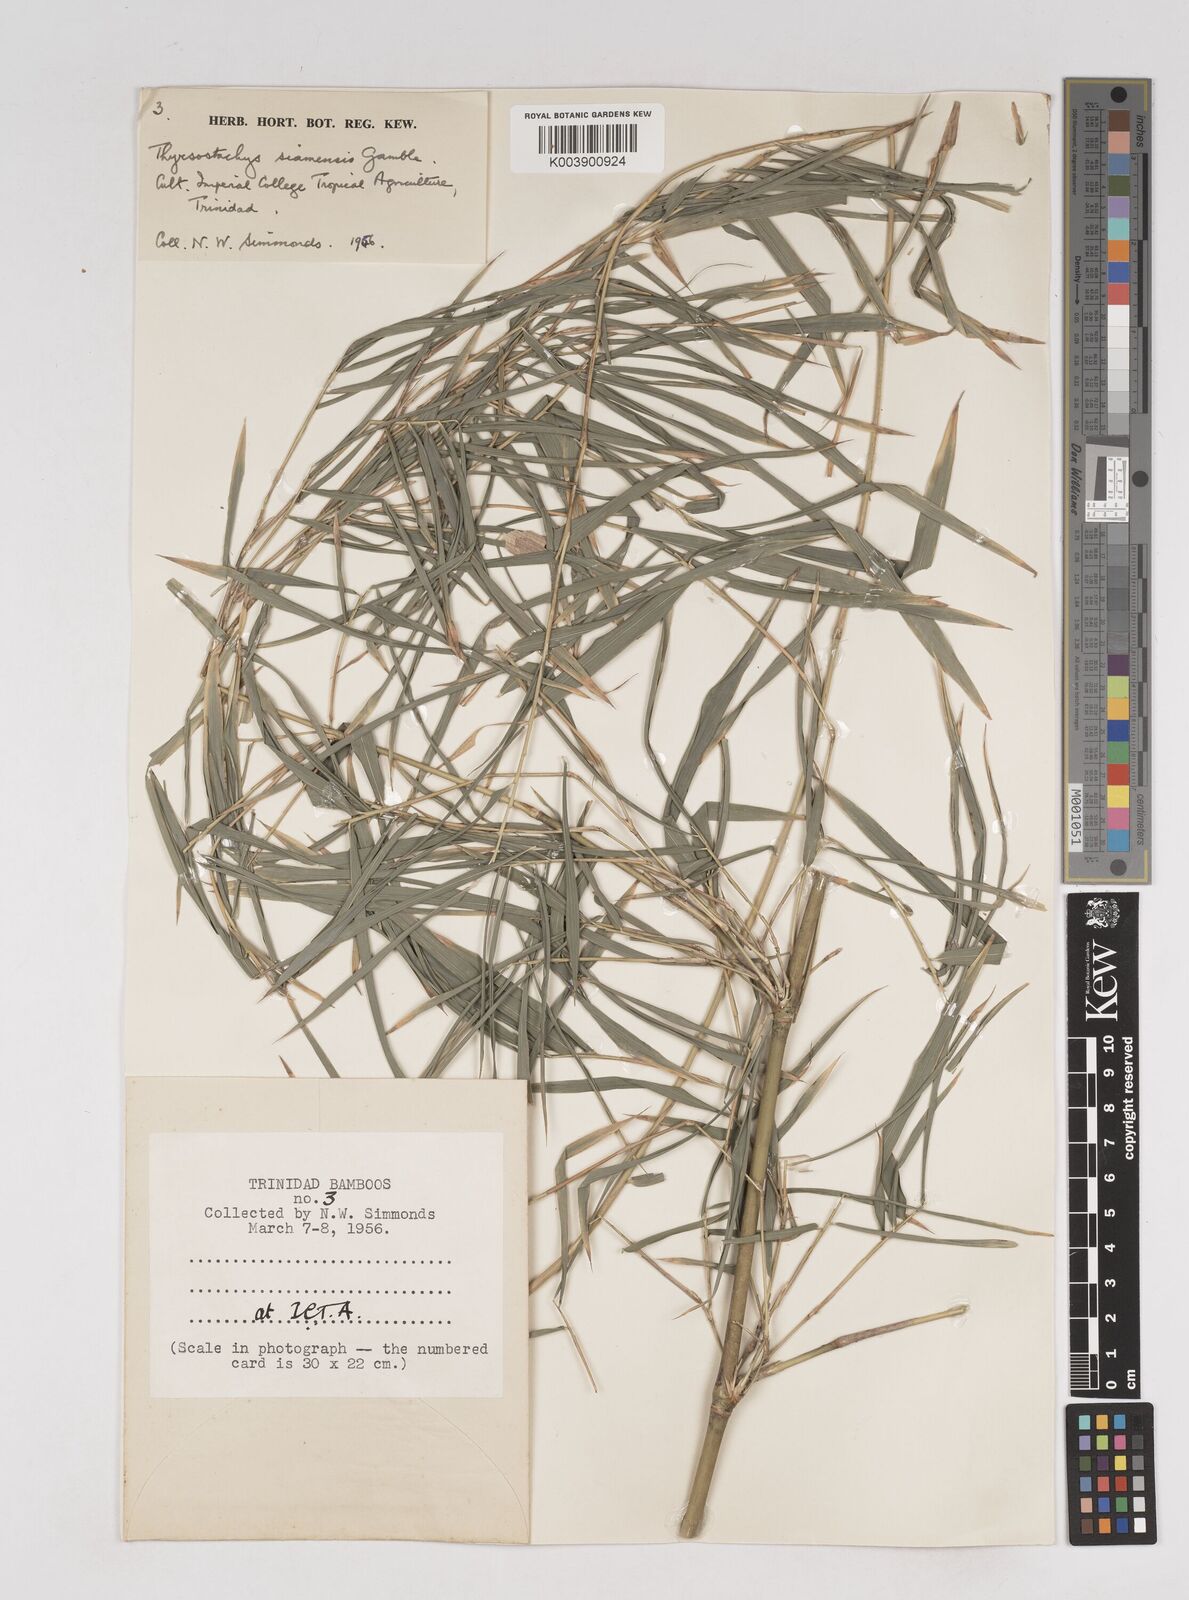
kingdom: Plantae
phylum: Tracheophyta
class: Liliopsida
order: Poales
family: Poaceae
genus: Thyrsostachys
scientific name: Thyrsostachys siamensis
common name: Thailand bamboo
